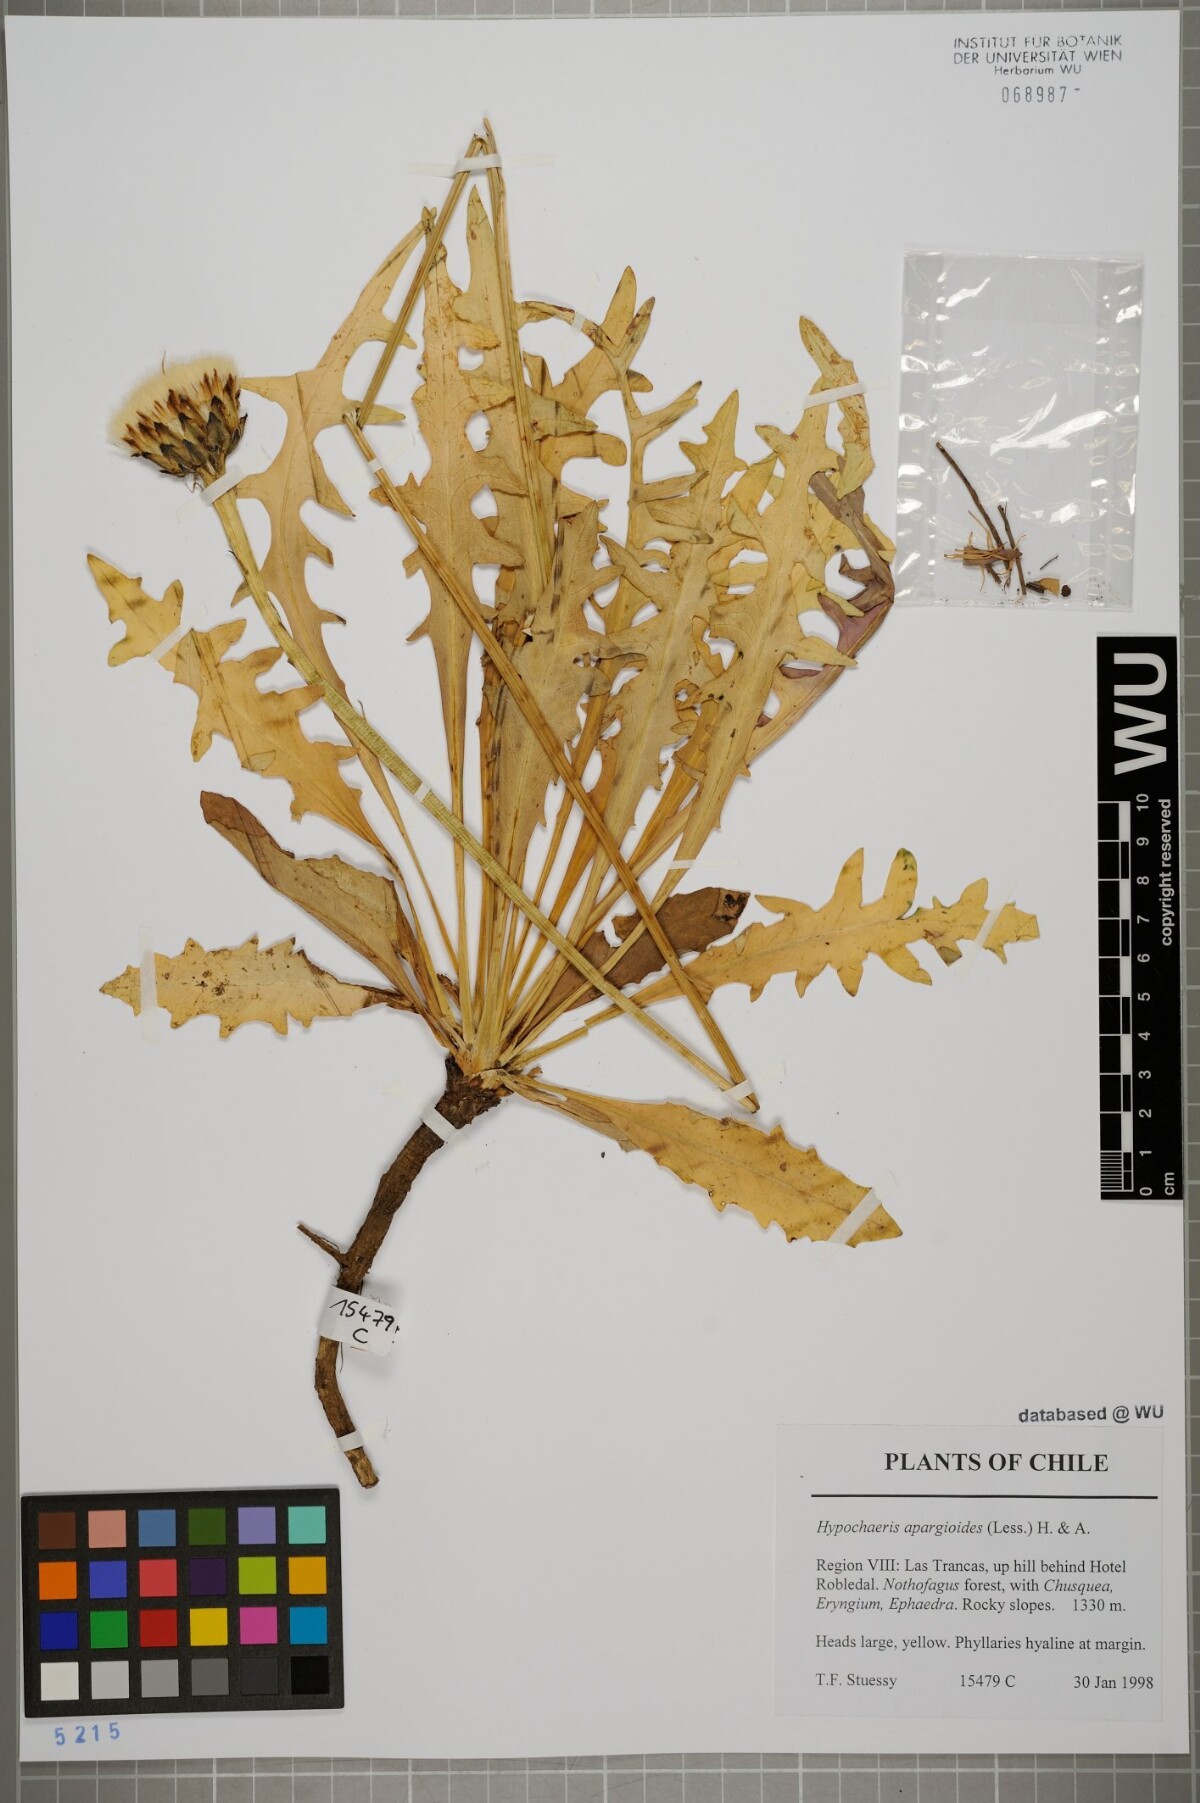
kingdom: Plantae
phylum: Tracheophyta
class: Magnoliopsida
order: Asterales
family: Asteraceae
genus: Hypochaeris
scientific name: Hypochaeris apargioides
